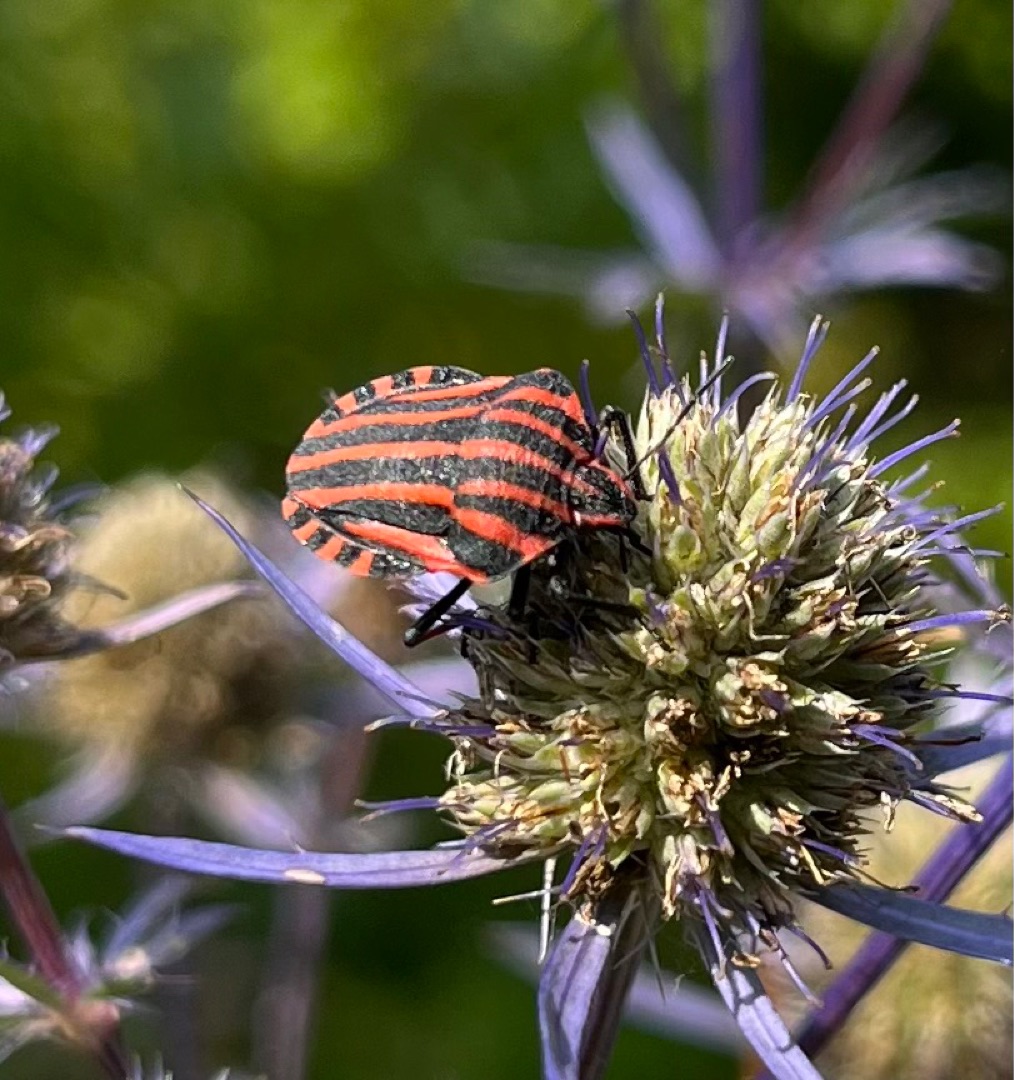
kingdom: Animalia
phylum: Arthropoda
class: Insecta
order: Hemiptera
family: Pentatomidae
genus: Graphosoma
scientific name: Graphosoma italicum
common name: Stribetæge
